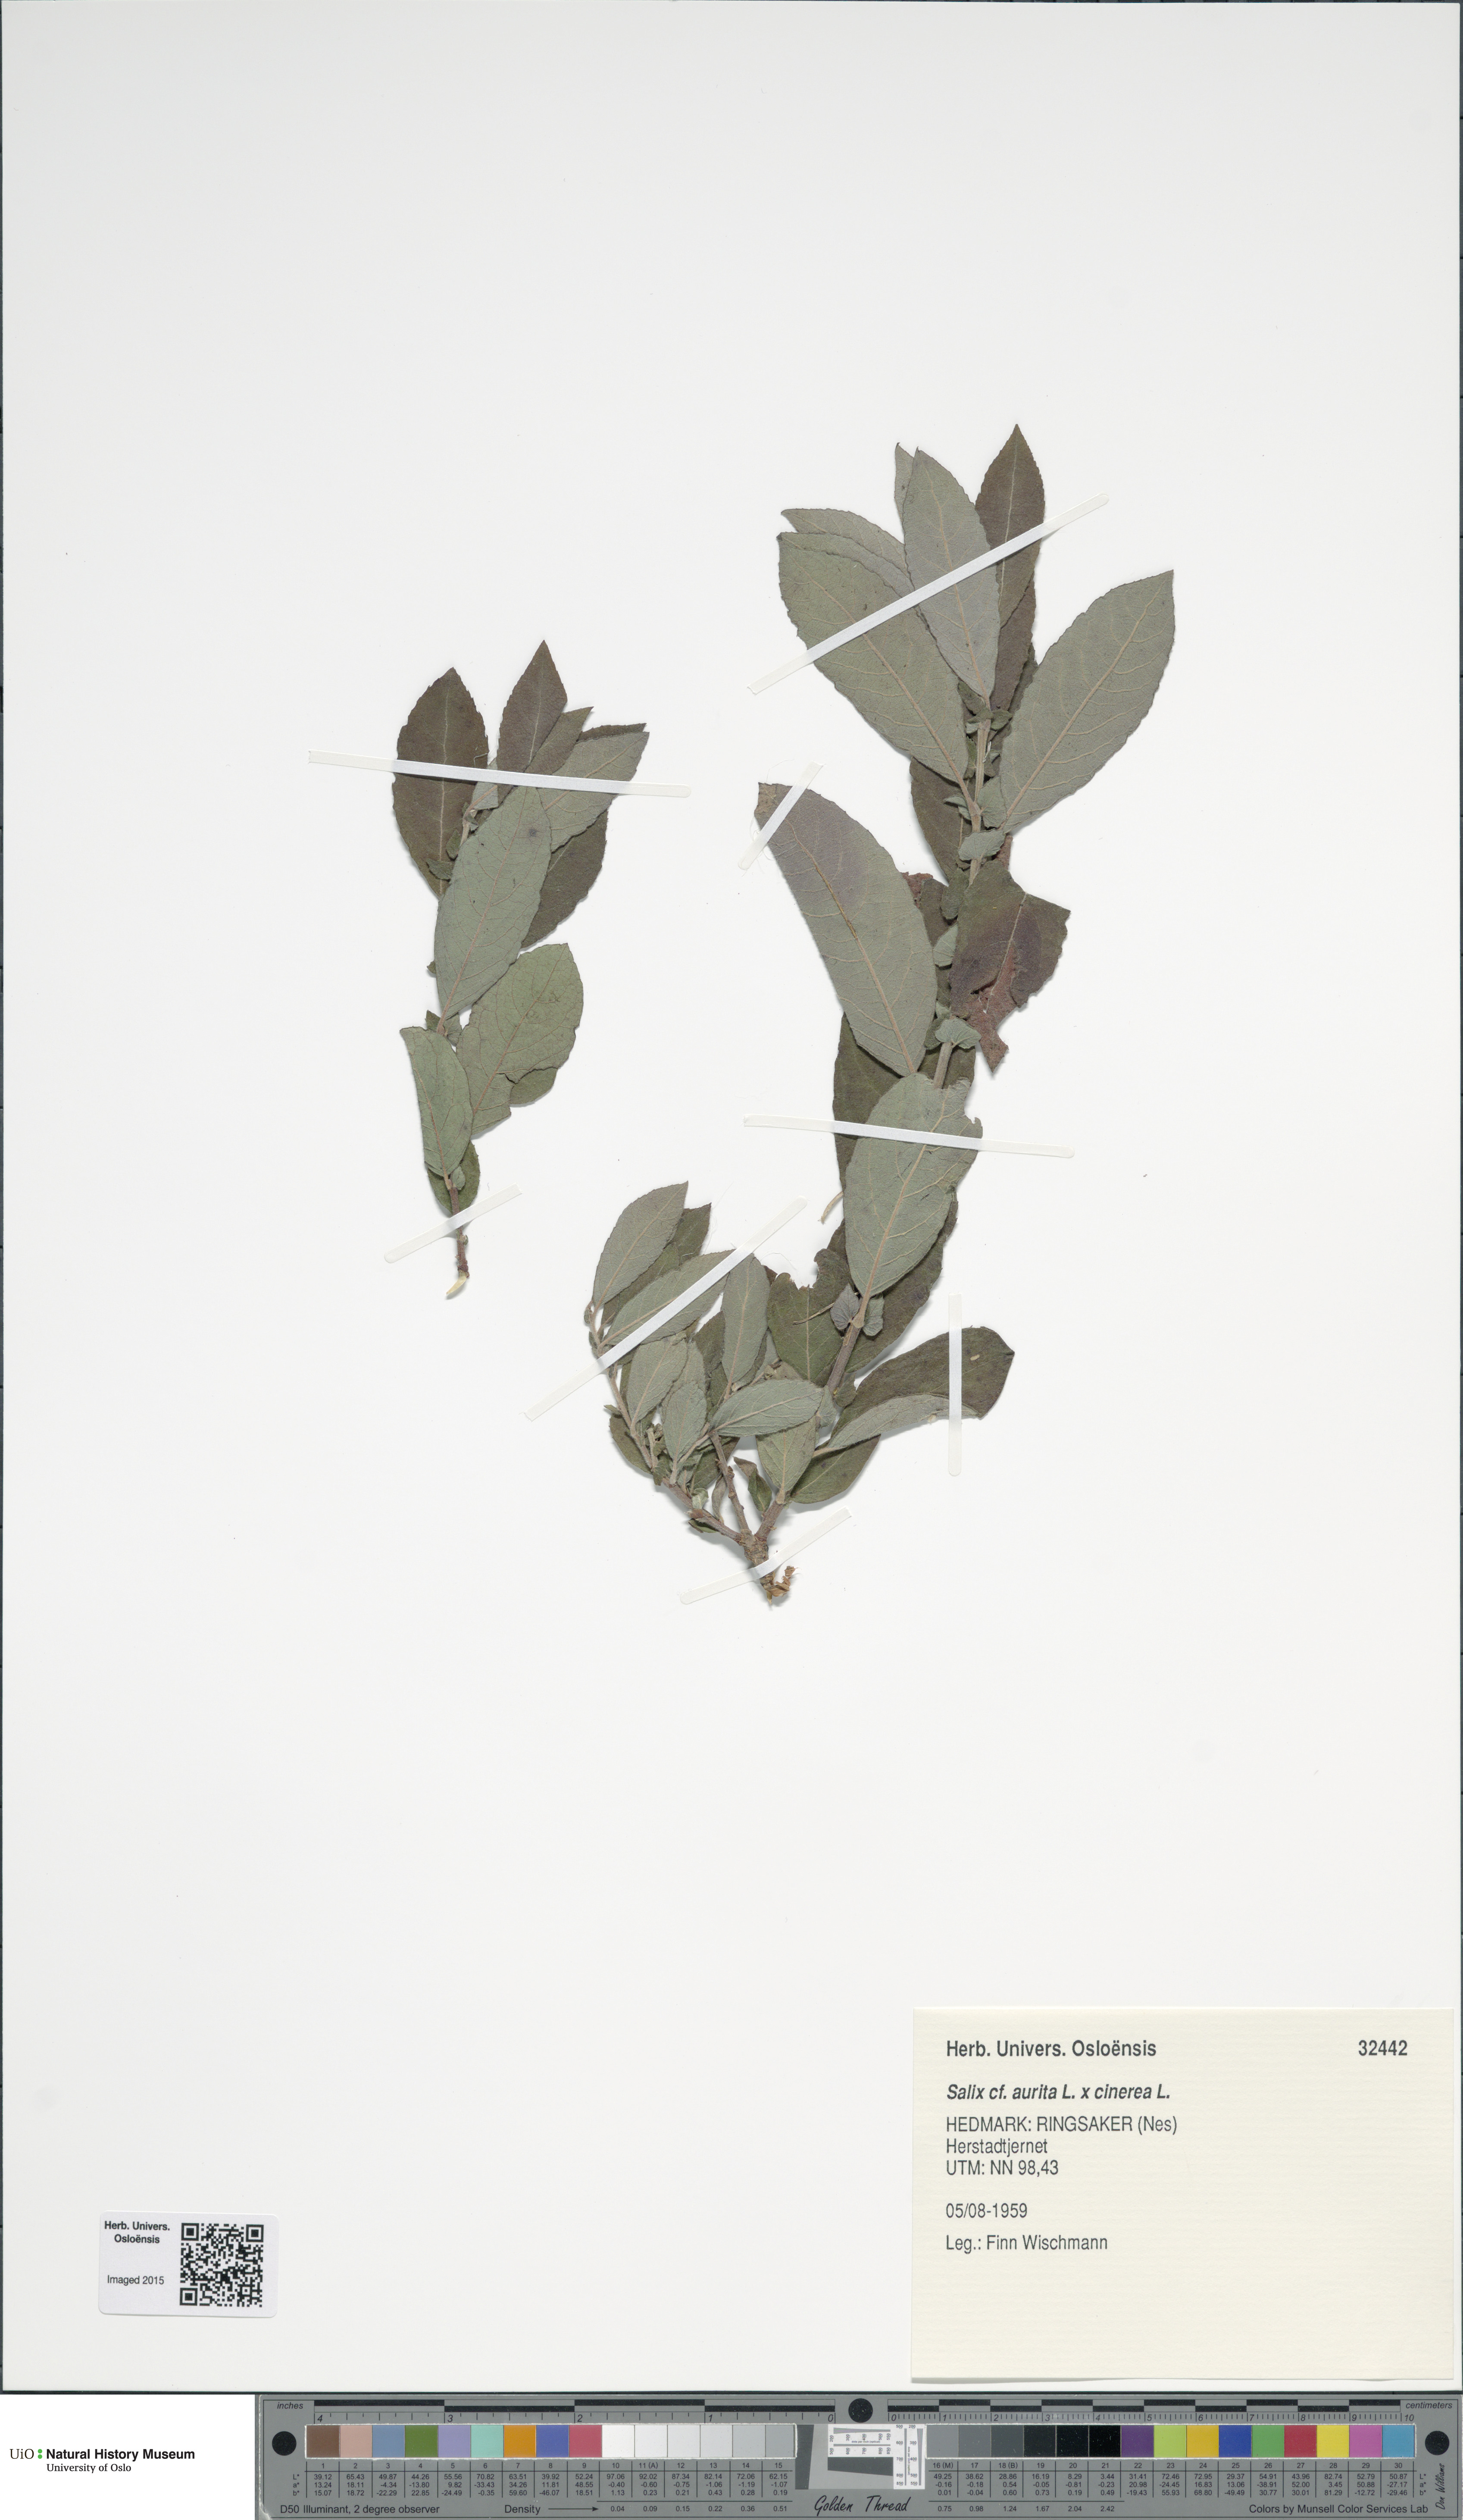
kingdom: Plantae
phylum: Tracheophyta
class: Magnoliopsida
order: Malpighiales
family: Salicaceae
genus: Salix
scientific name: Salix
